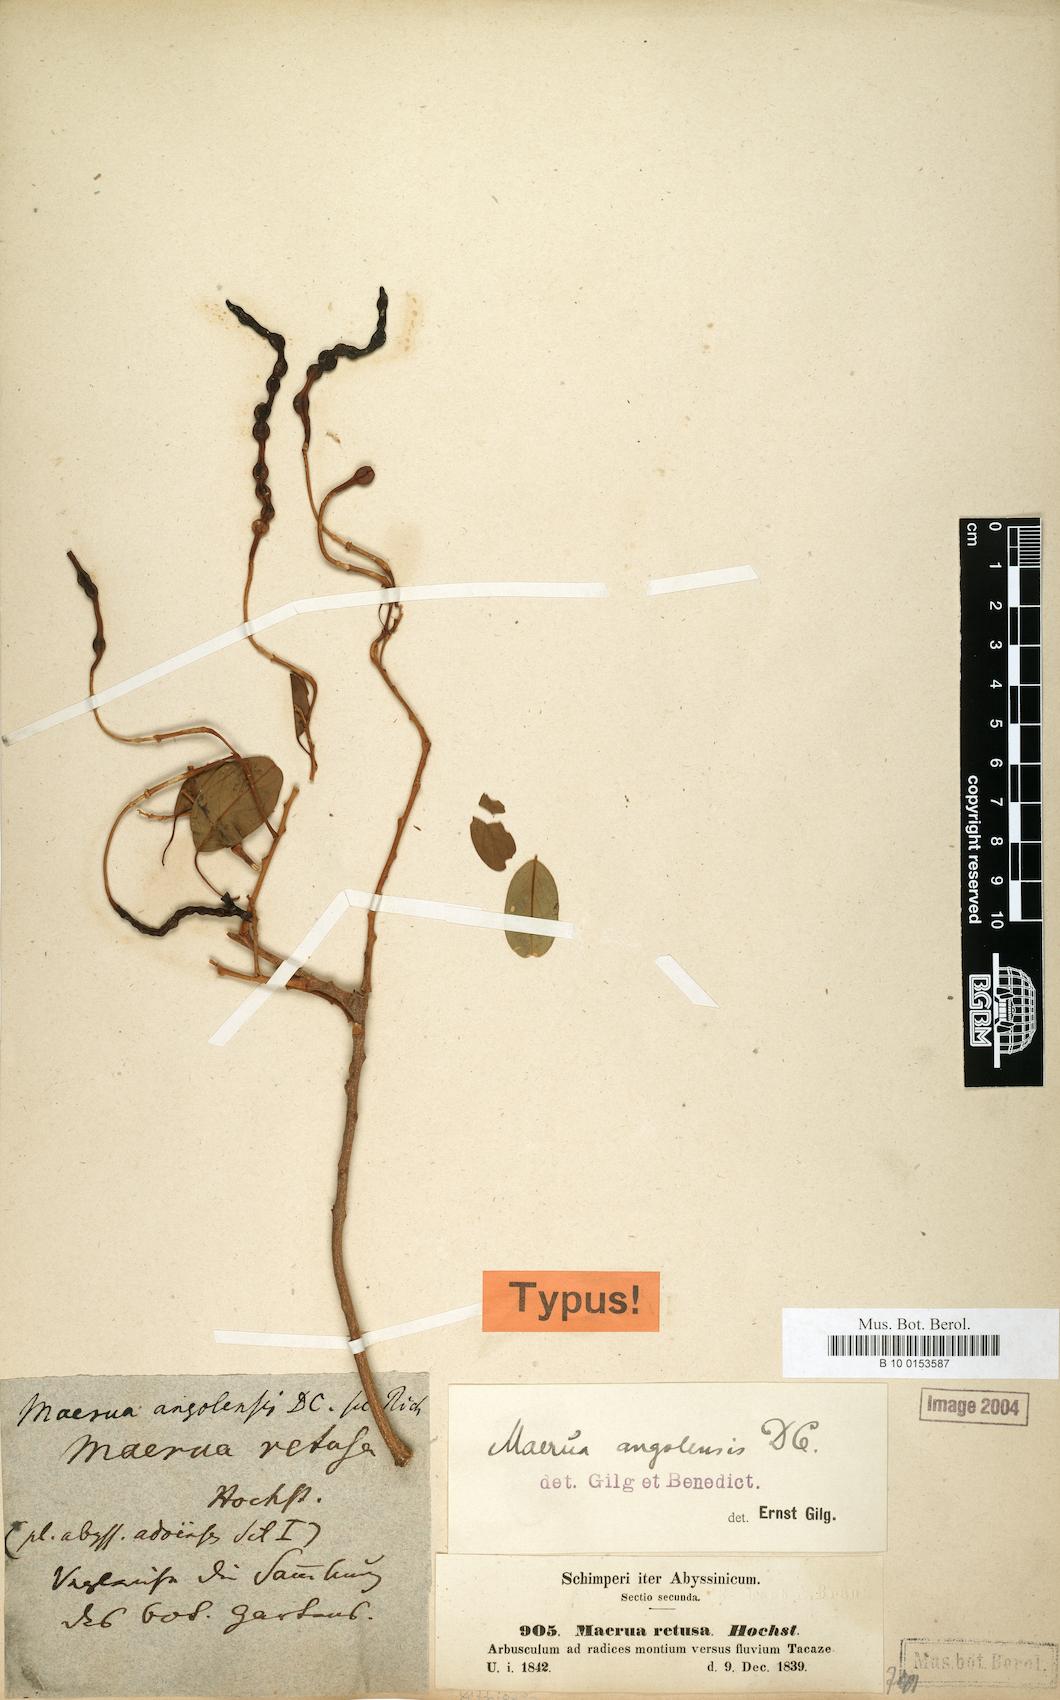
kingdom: Plantae
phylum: Tracheophyta
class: Magnoliopsida
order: Brassicales
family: Capparaceae
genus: Maerua
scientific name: Maerua angolensis
